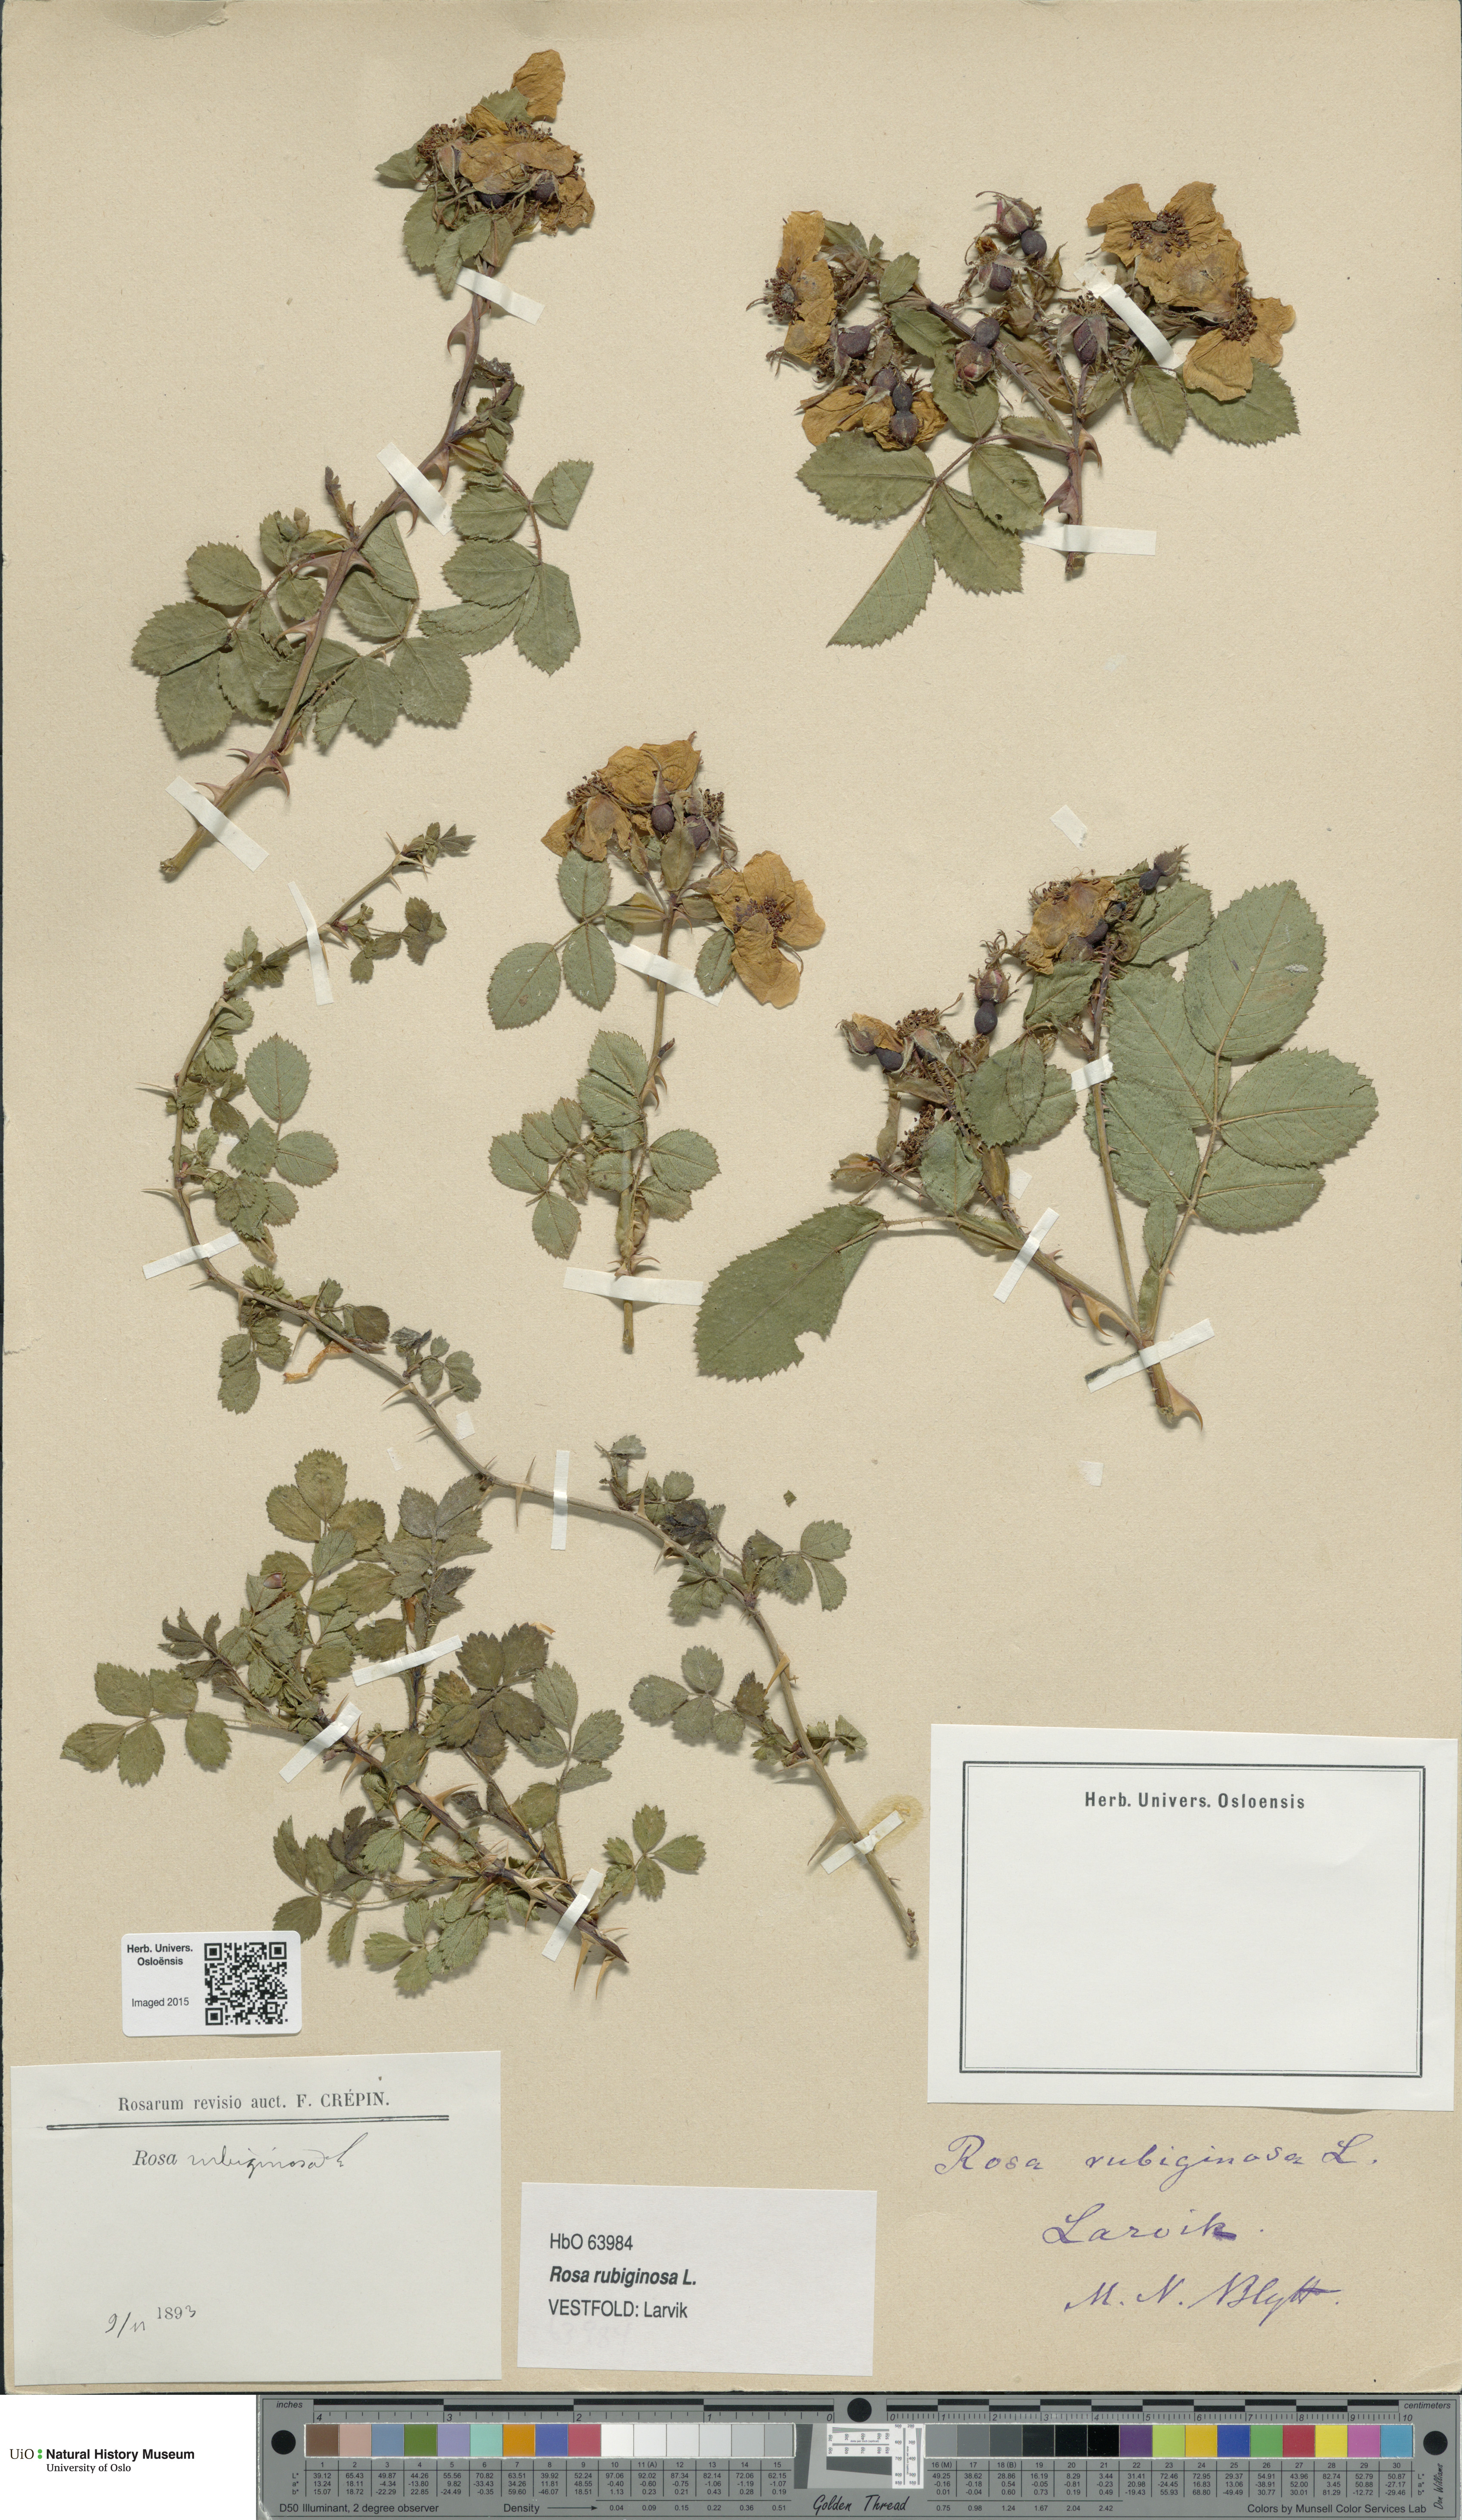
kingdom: Plantae
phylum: Tracheophyta
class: Magnoliopsida
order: Rosales
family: Rosaceae
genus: Rosa
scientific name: Rosa rubiginosa
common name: Sweet-briar
